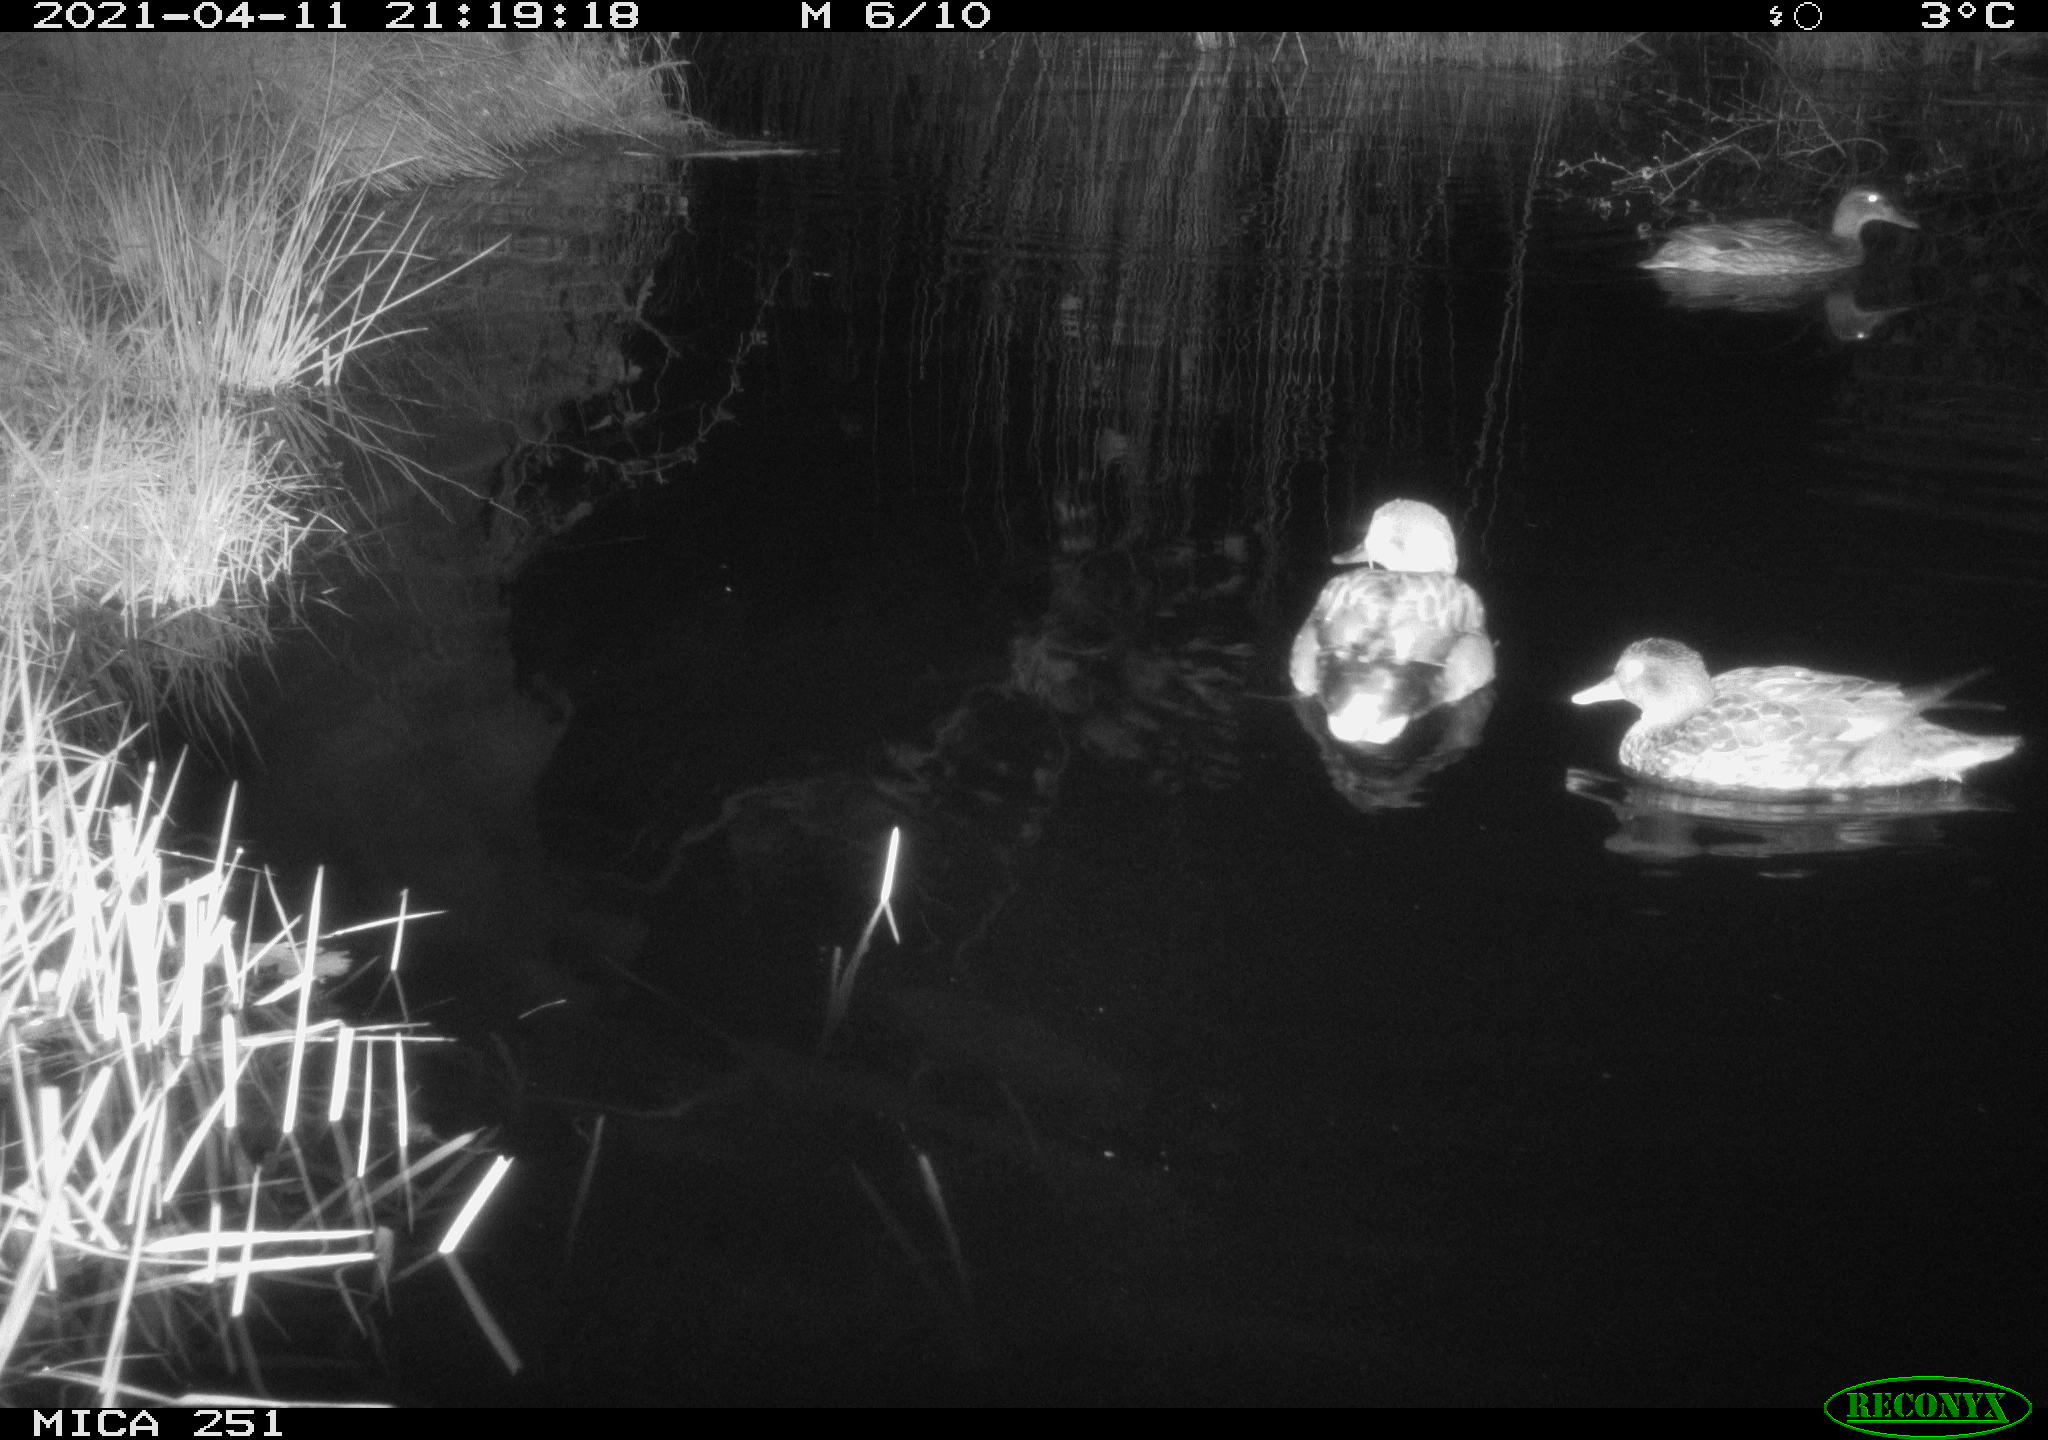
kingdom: Animalia
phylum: Chordata
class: Aves
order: Anseriformes
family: Anatidae
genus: Anas
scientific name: Anas platyrhynchos
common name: Mallard
